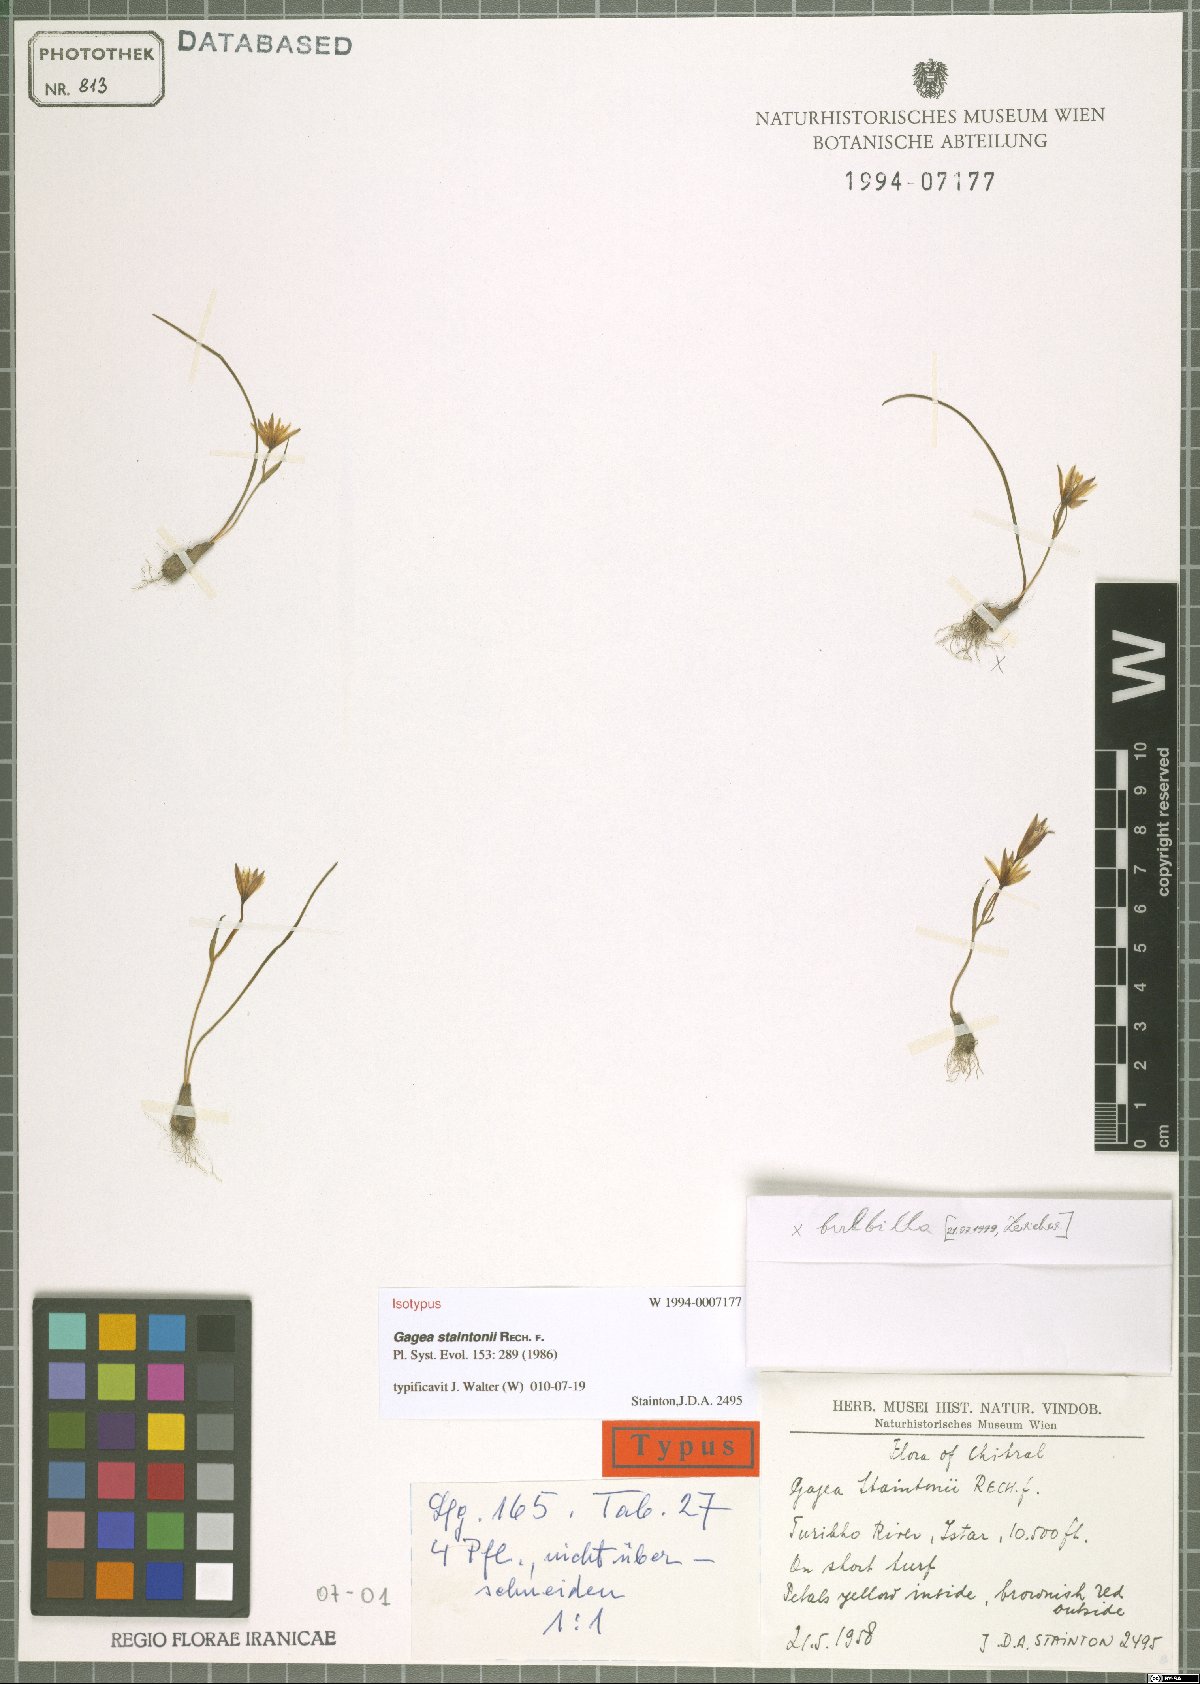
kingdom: Plantae
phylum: Tracheophyta
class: Liliopsida
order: Liliales
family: Liliaceae
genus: Gagea
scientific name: Gagea staintonii
